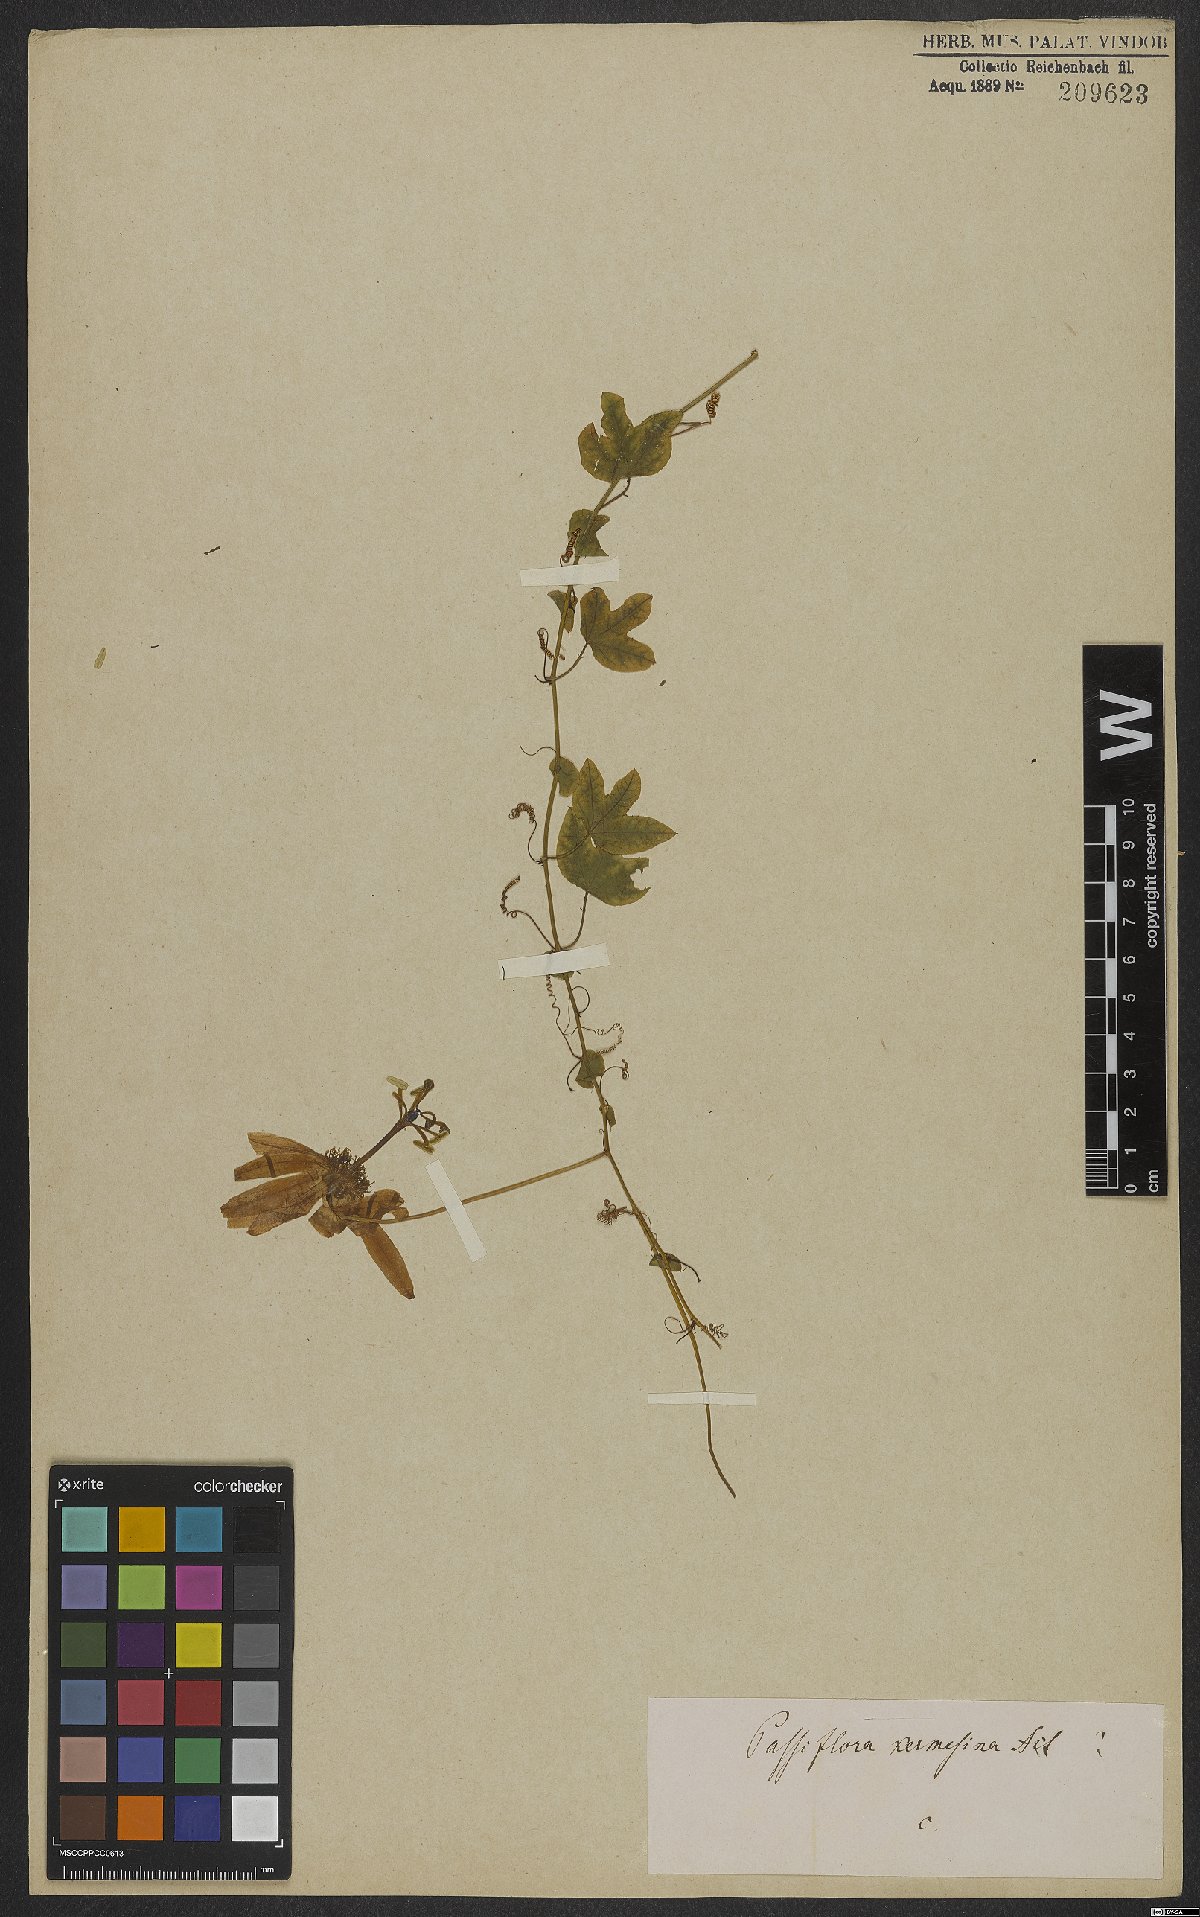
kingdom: Plantae
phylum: Tracheophyta
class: Magnoliopsida
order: Malpighiales
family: Passifloraceae
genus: Passiflora
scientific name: Passiflora kermesina
